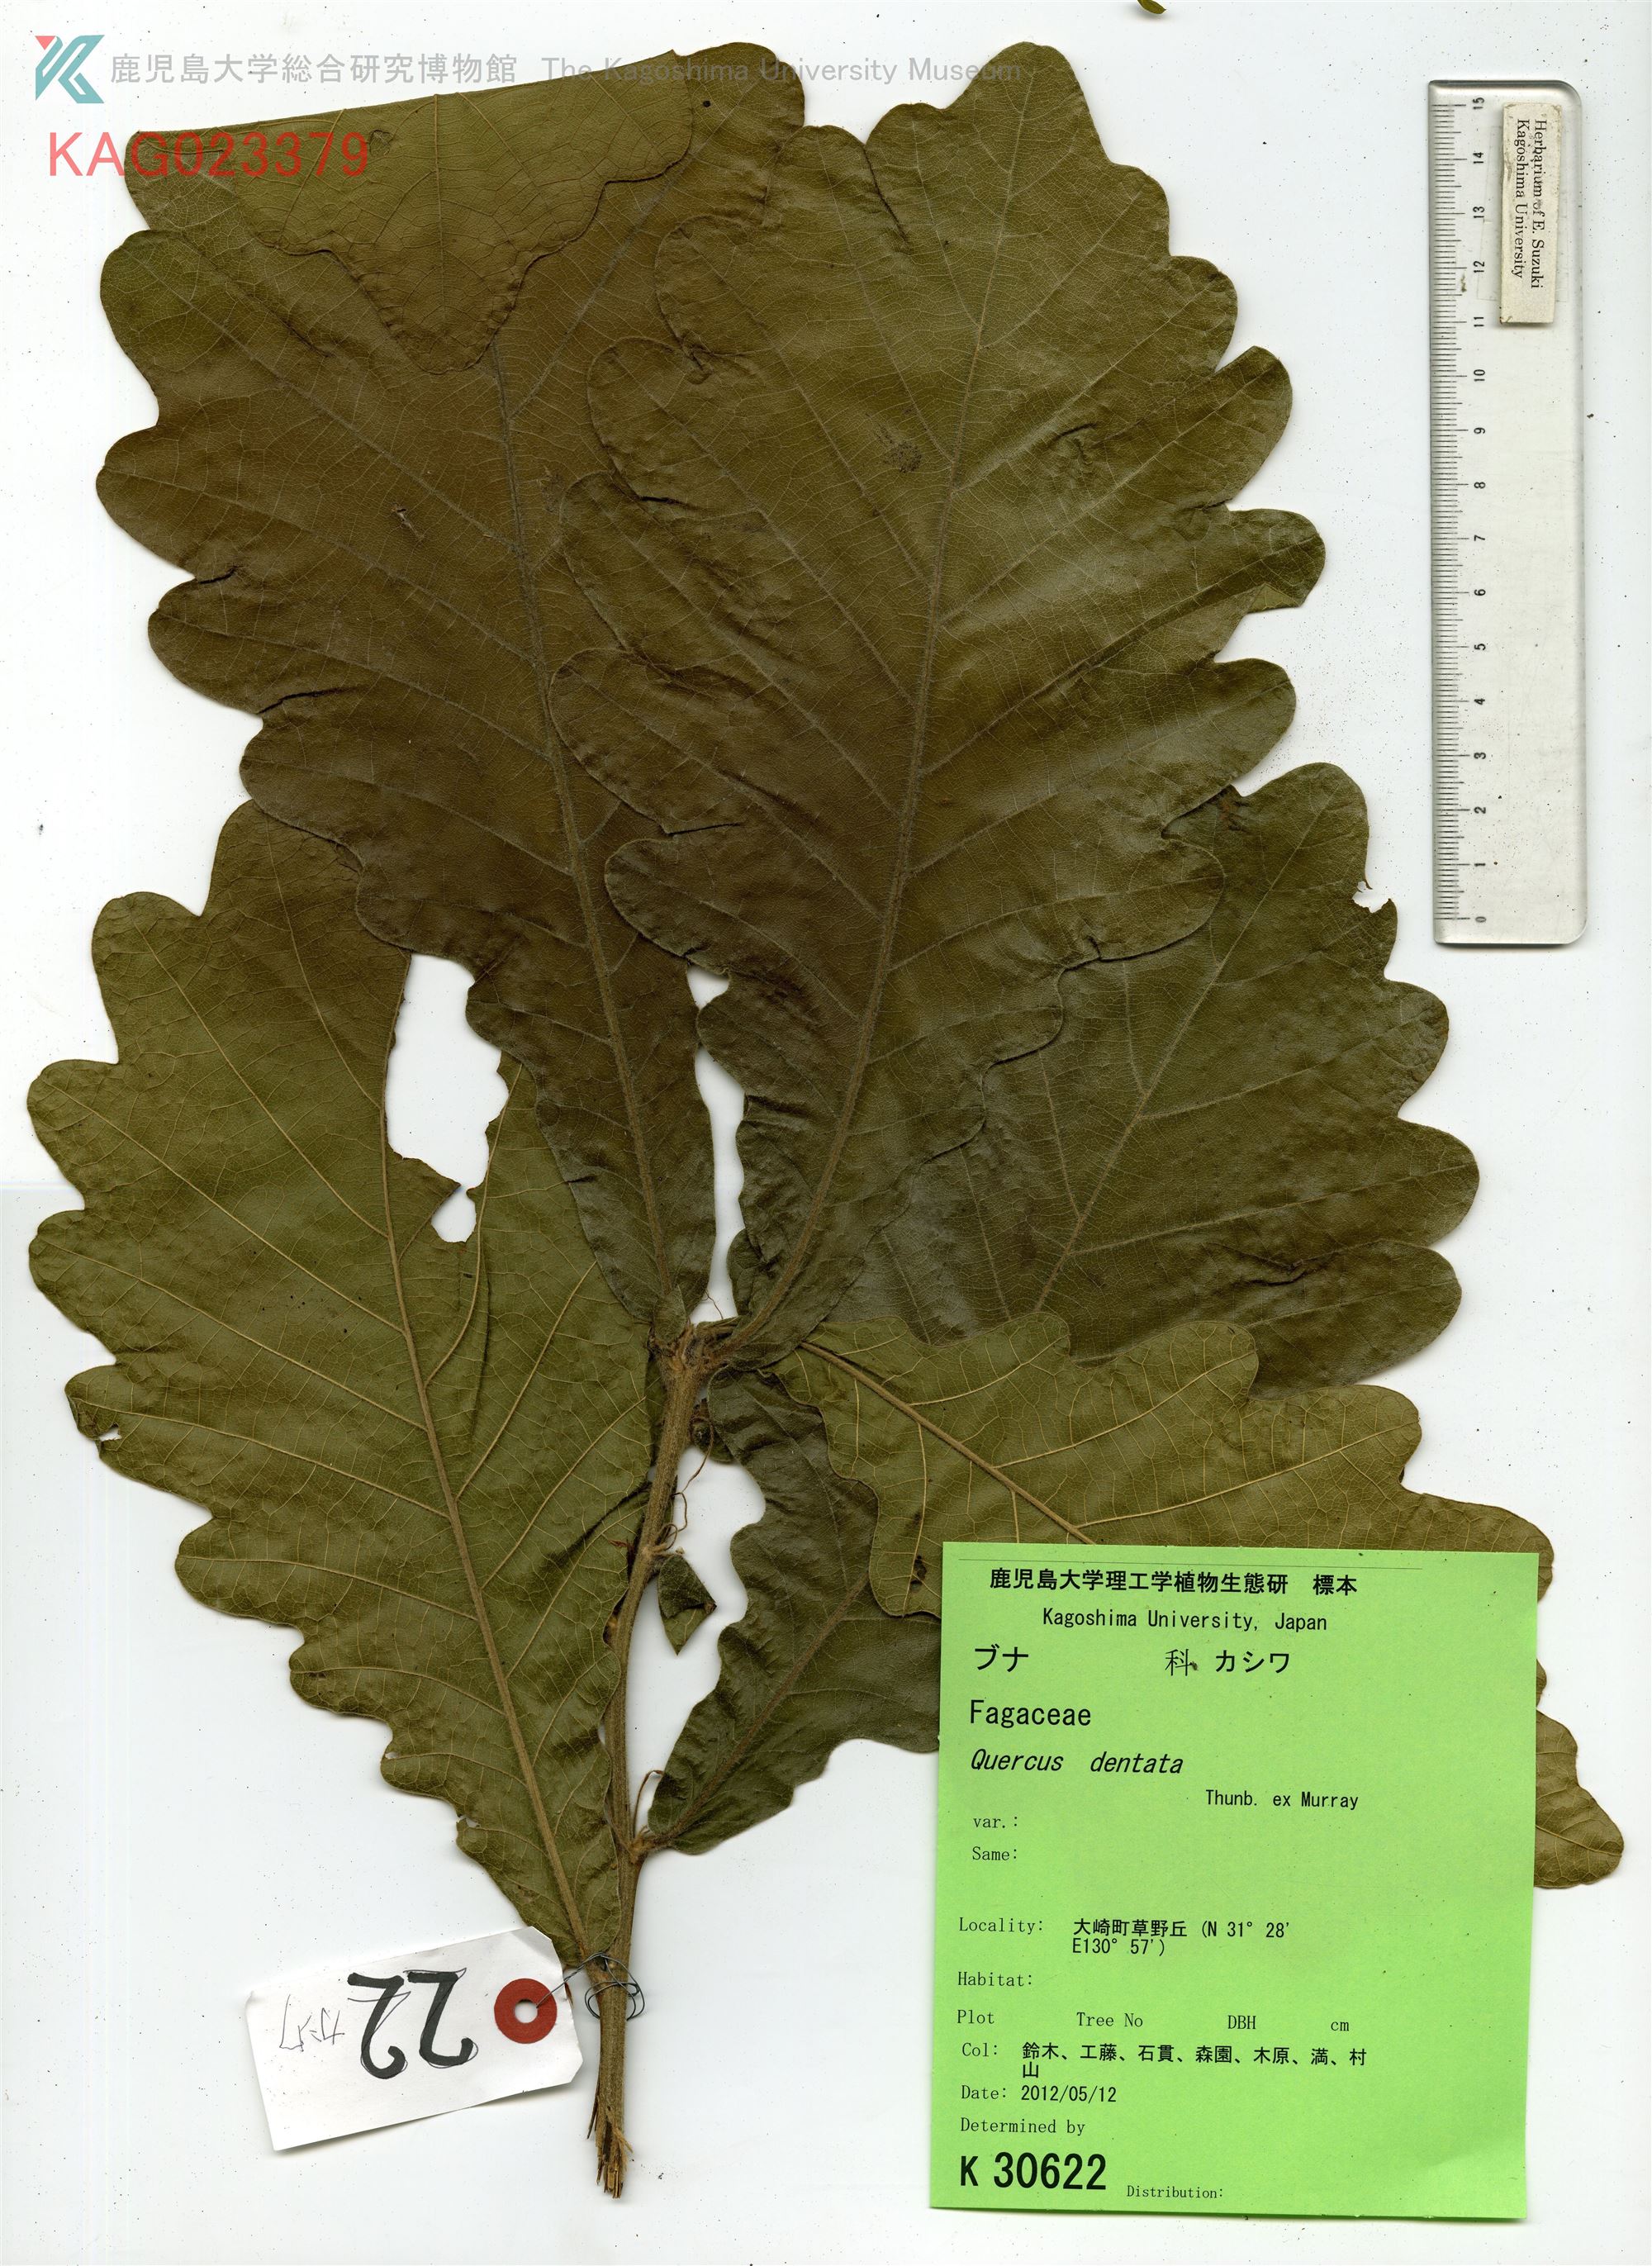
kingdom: Plantae
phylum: Tracheophyta
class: Magnoliopsida
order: Fagales
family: Fagaceae
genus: Quercus
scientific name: Quercus dentata
